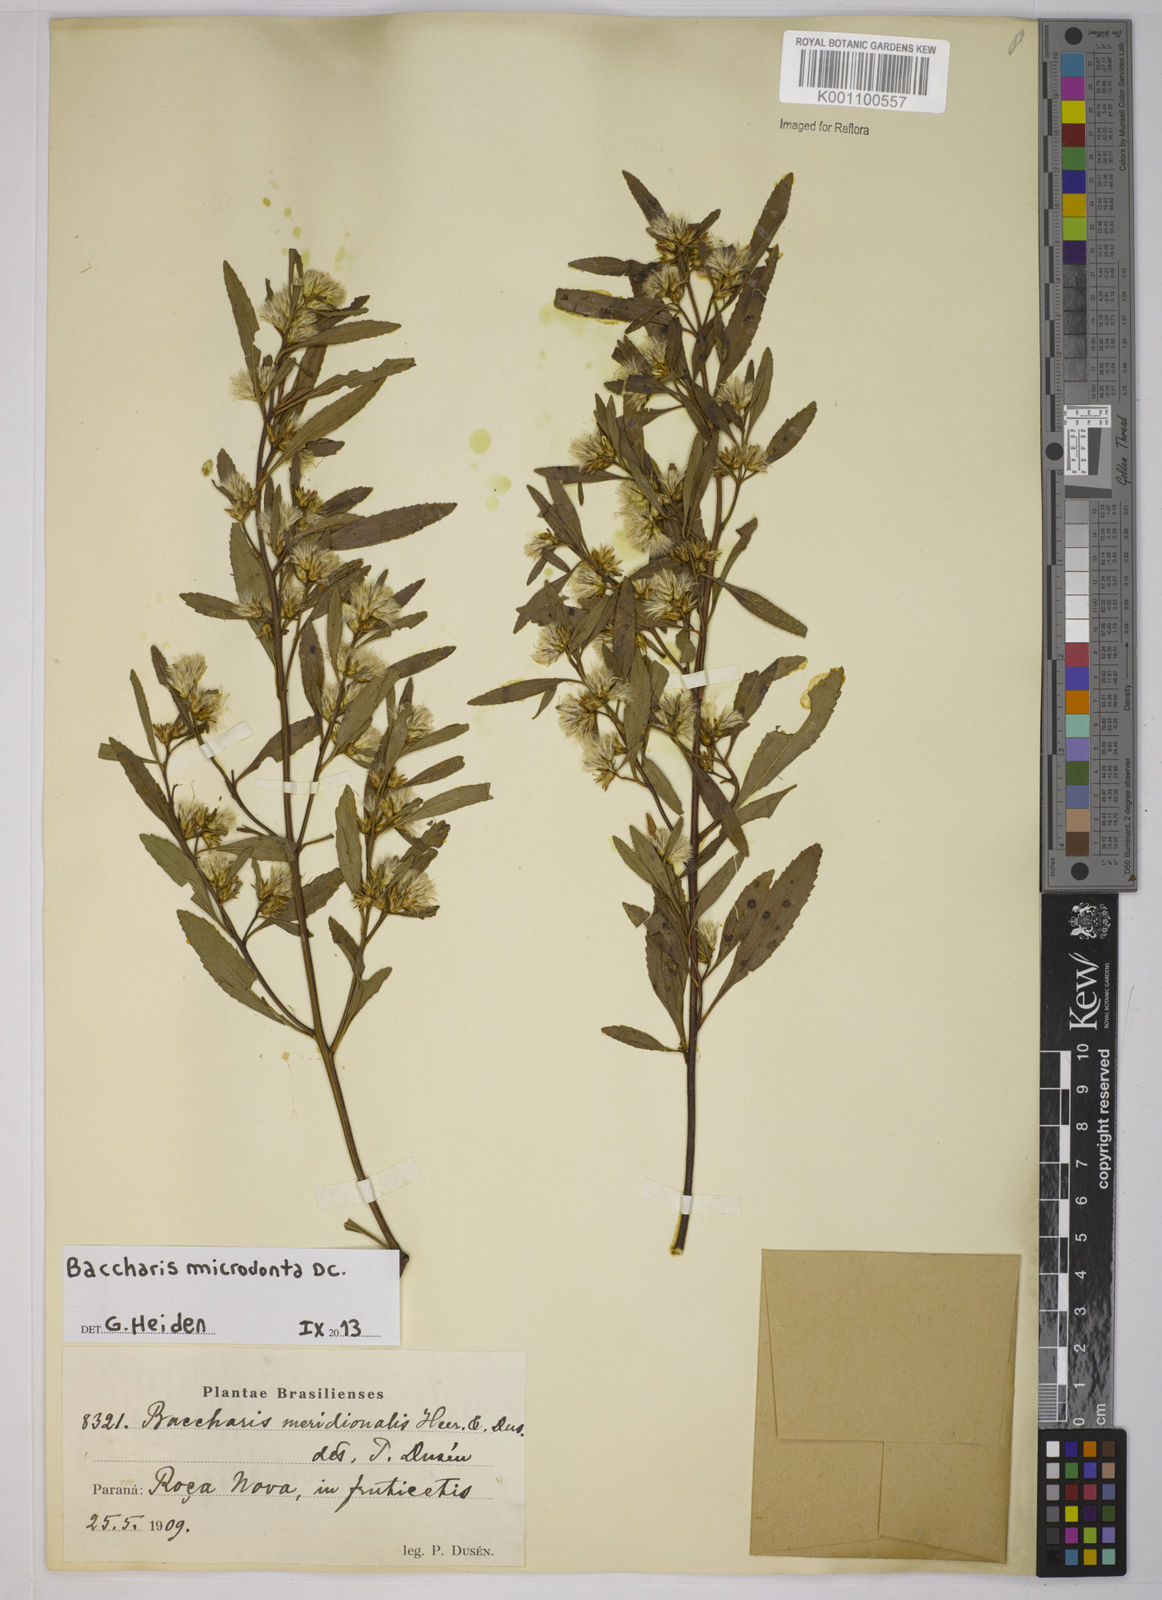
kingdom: Plantae
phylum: Tracheophyta
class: Magnoliopsida
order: Asterales
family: Asteraceae
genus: Baccharis
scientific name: Baccharis microdonta
